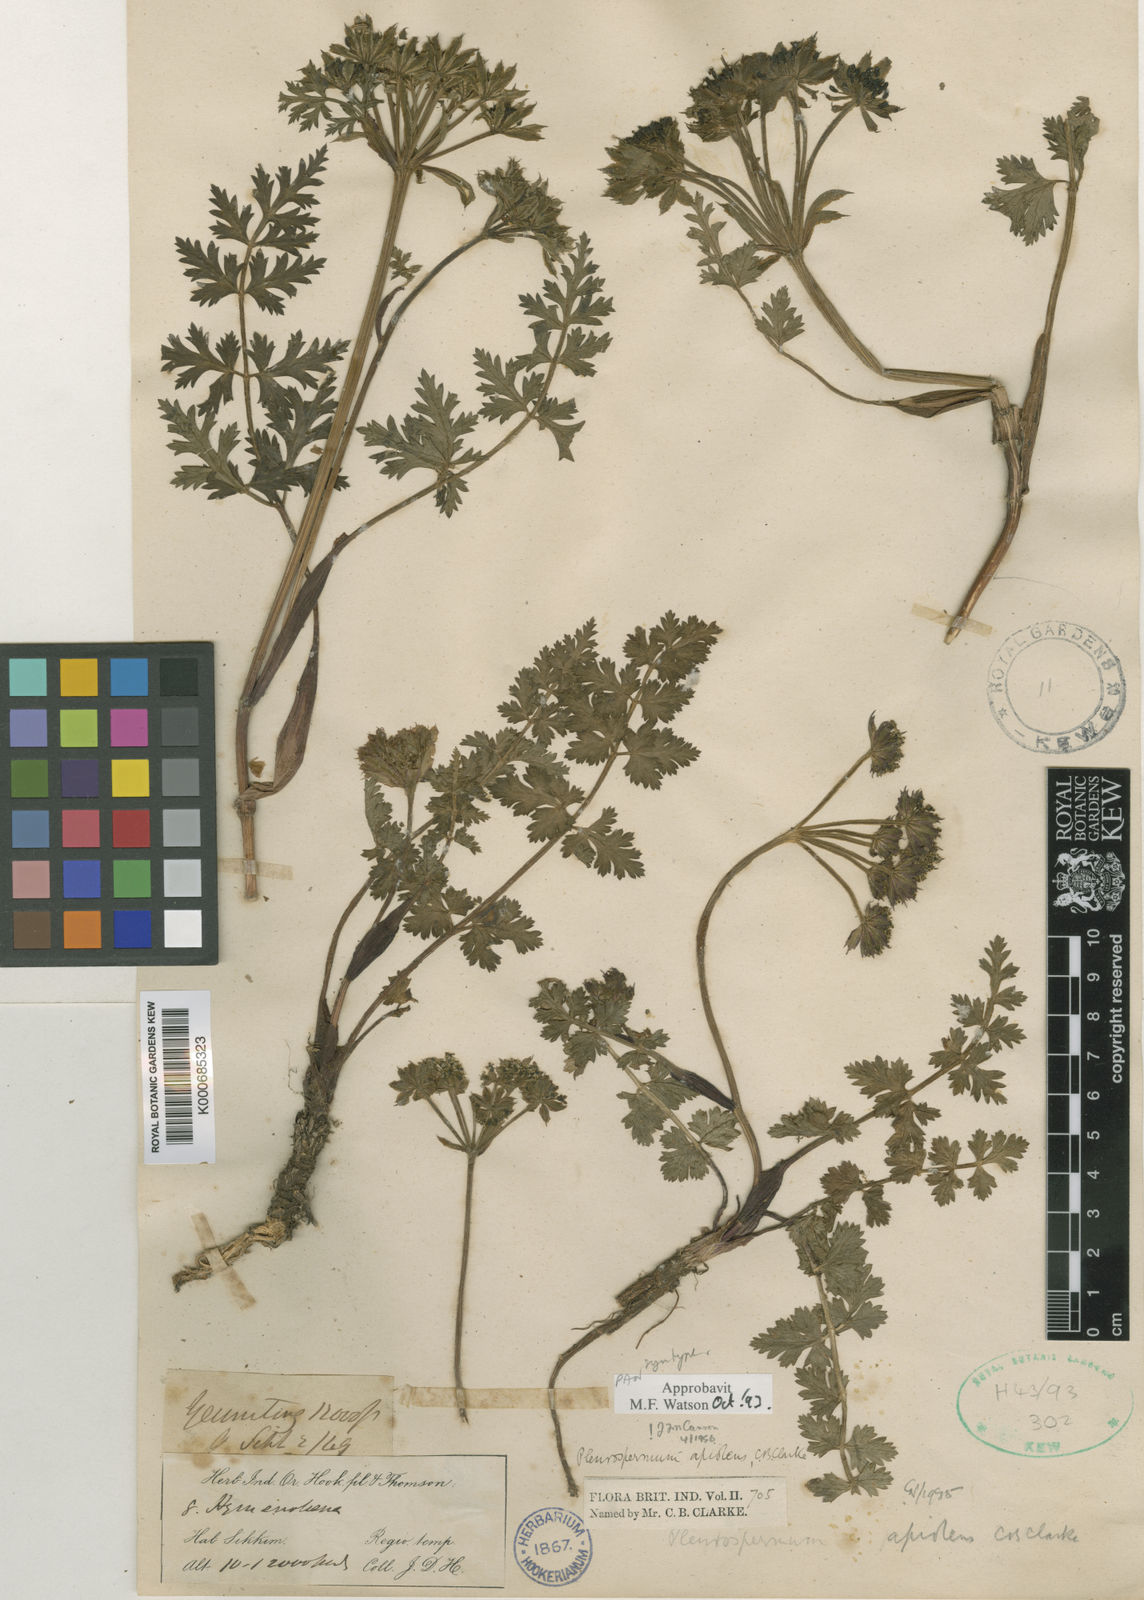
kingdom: Plantae
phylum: Tracheophyta
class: Magnoliopsida
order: Apiales
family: Apiaceae
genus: Hymenidium
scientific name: Hymenidium apiolens
